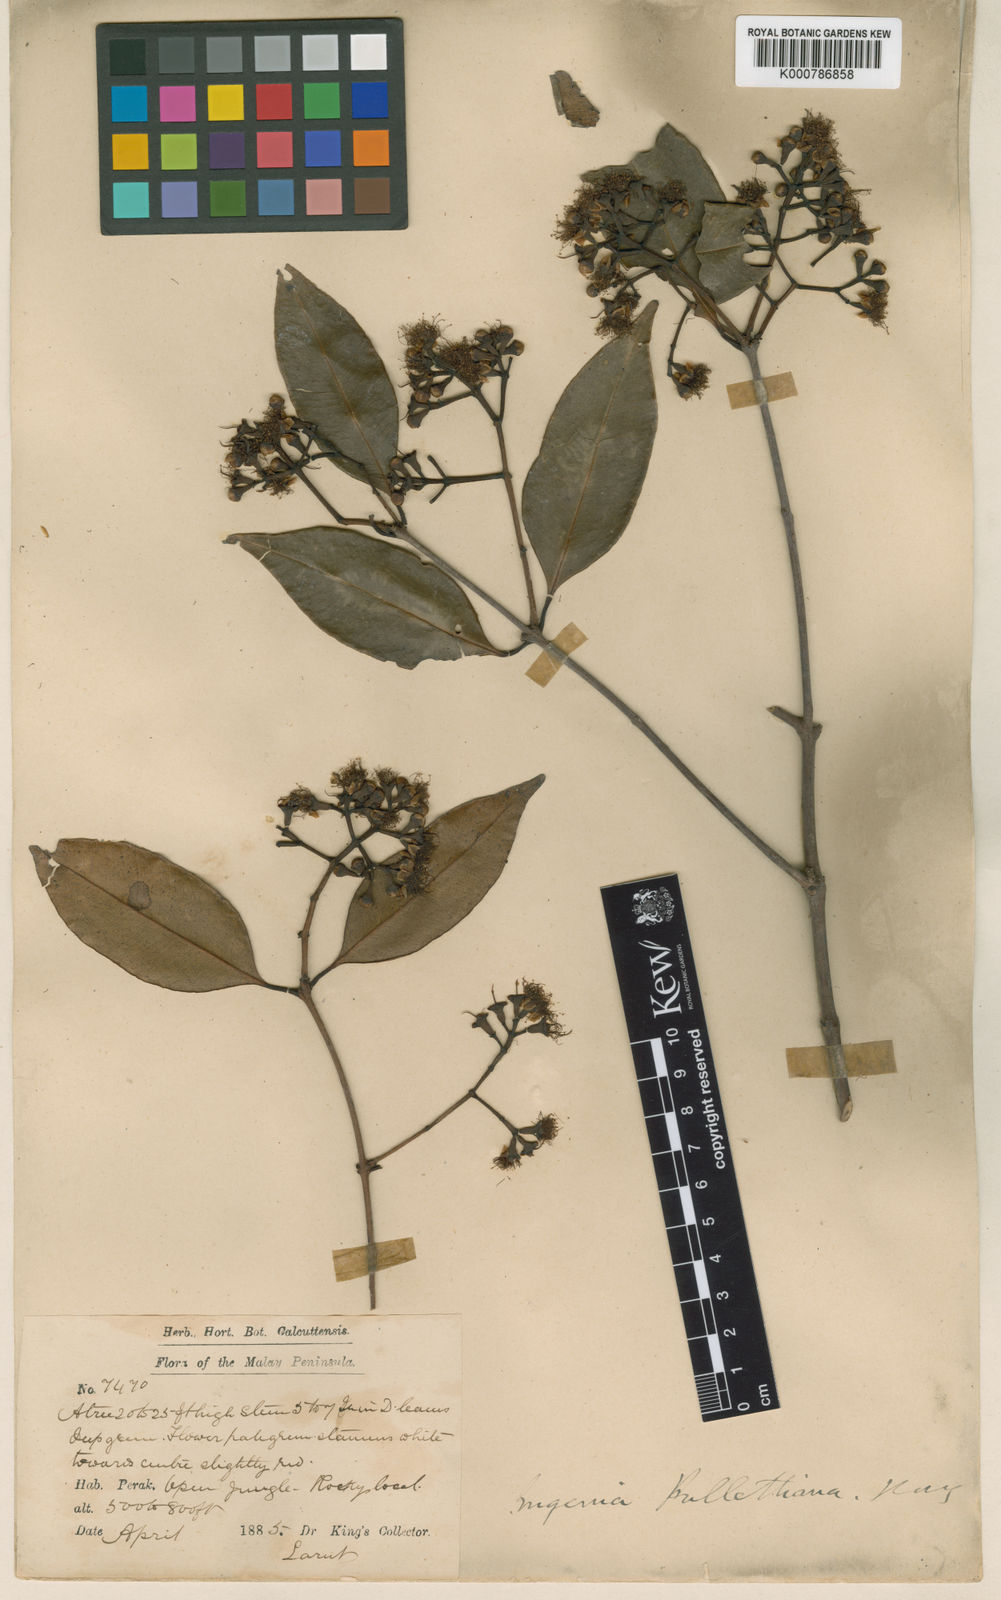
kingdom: Plantae
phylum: Tracheophyta
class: Magnoliopsida
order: Myrtales
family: Myrtaceae
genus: Syzygium
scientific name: Syzygium chloranthum
